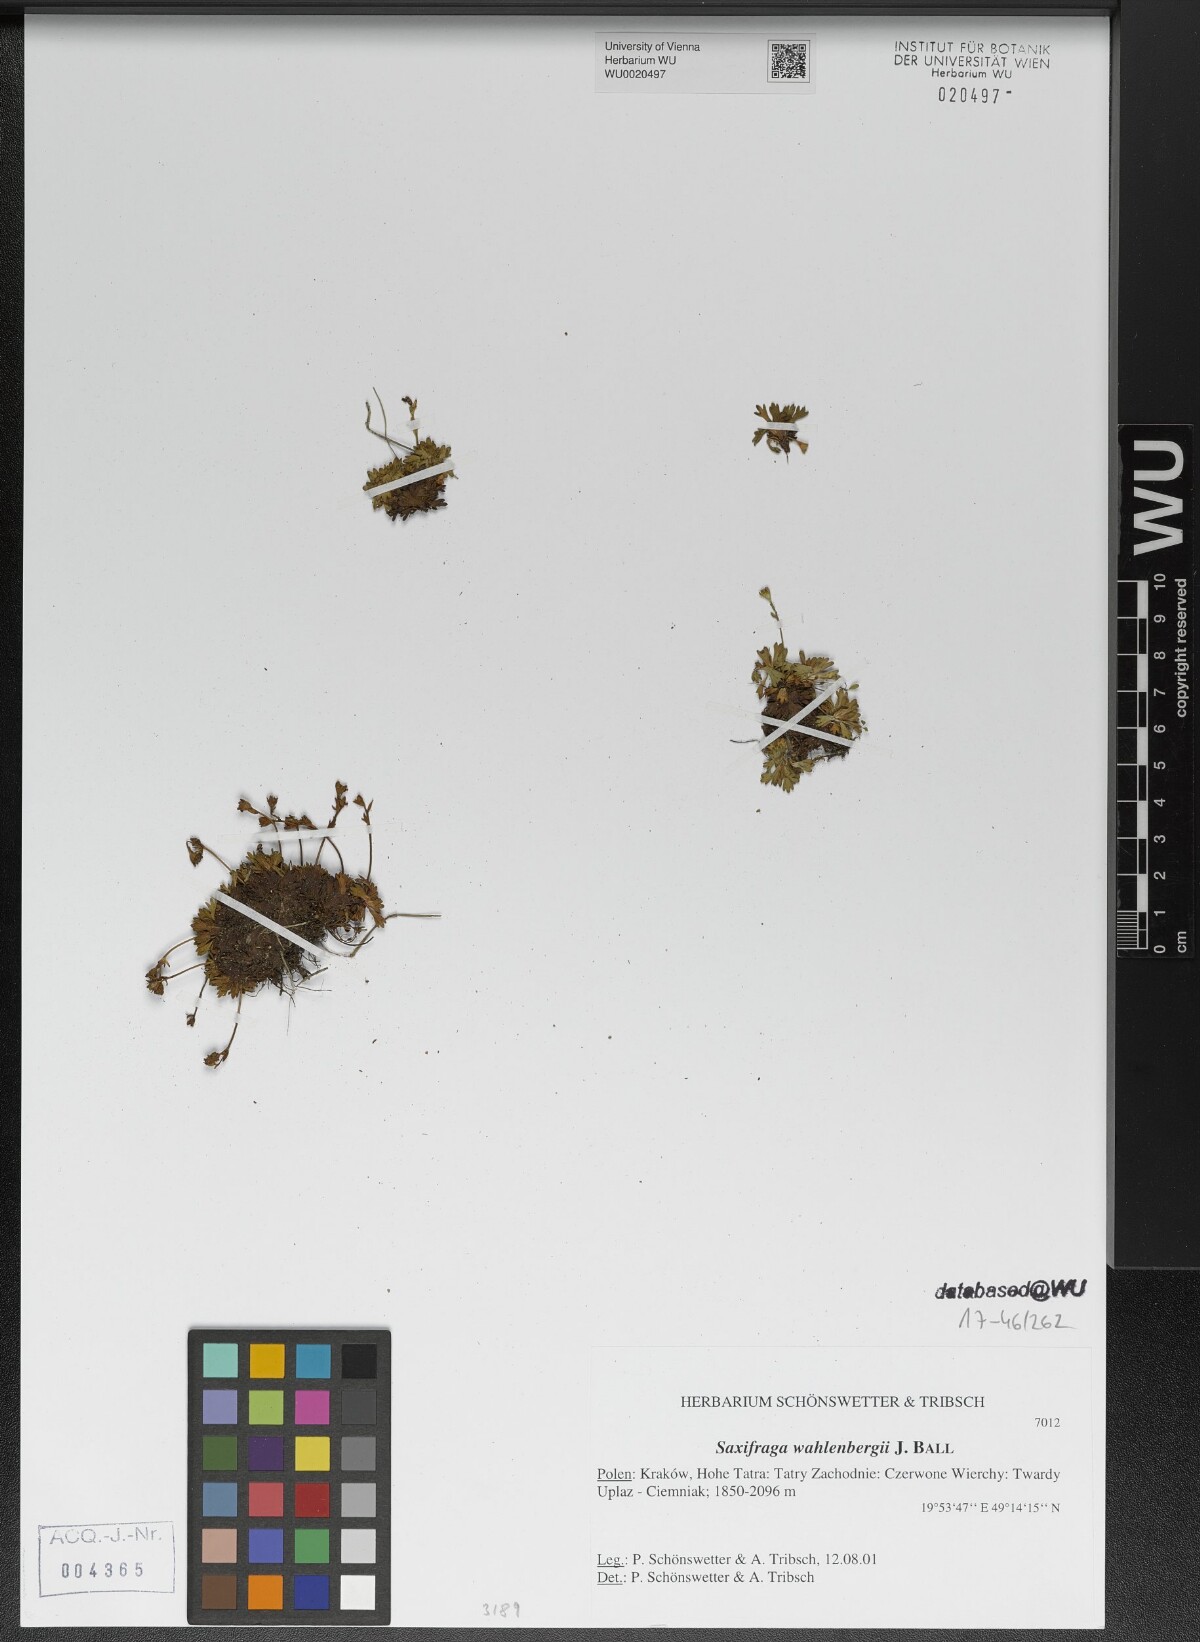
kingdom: Plantae
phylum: Tracheophyta
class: Magnoliopsida
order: Saxifragales
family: Saxifragaceae
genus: Saxifraga
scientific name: Saxifraga wahlenbergii
